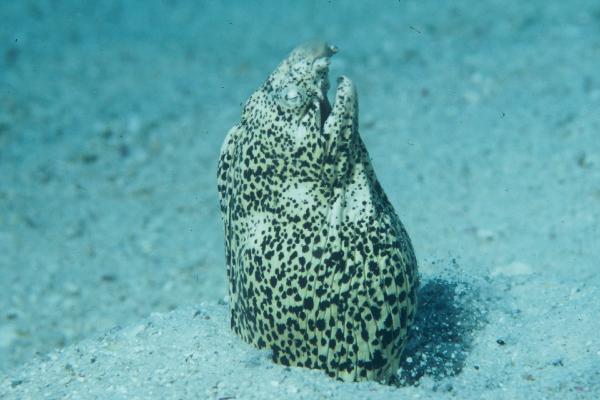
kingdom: Animalia
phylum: Chordata
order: Anguilliformes
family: Ophichthidae
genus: Callechelys
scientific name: Callechelys lutea
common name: Freckled snake eel
